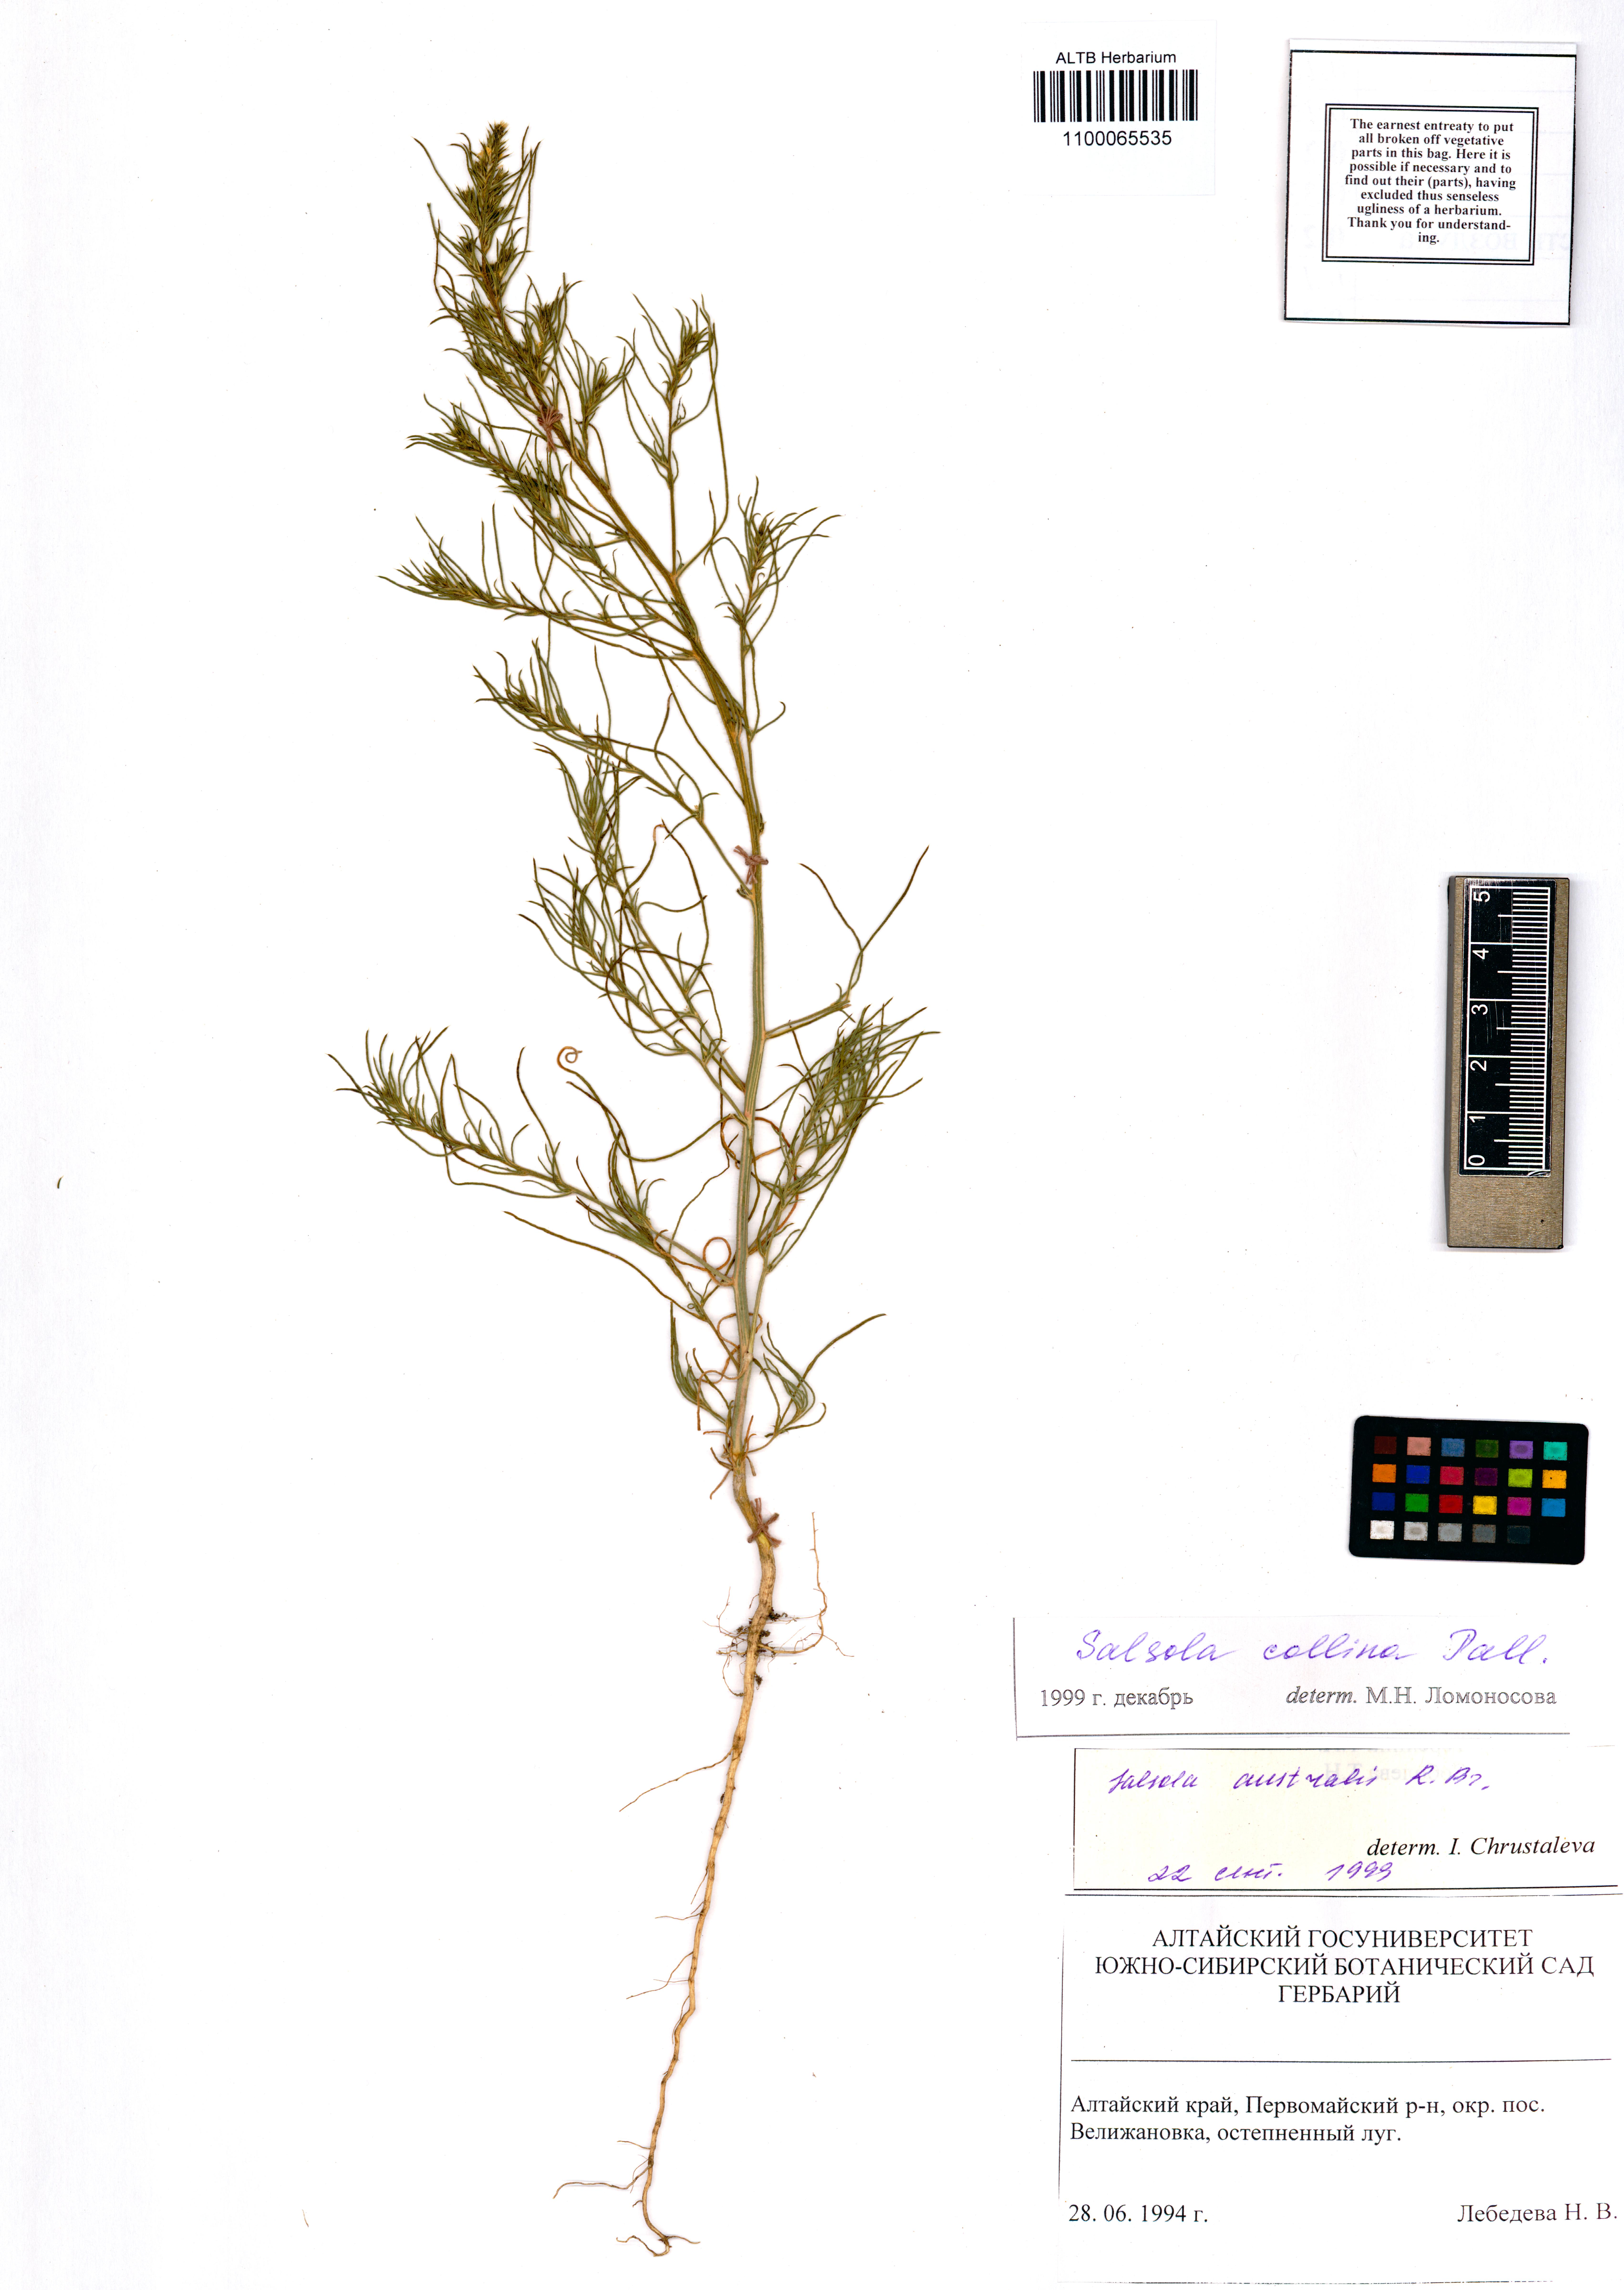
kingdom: Plantae
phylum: Tracheophyta
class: Magnoliopsida
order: Caryophyllales
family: Amaranthaceae
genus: Salsola
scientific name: Salsola collina
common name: Tumbleweed
